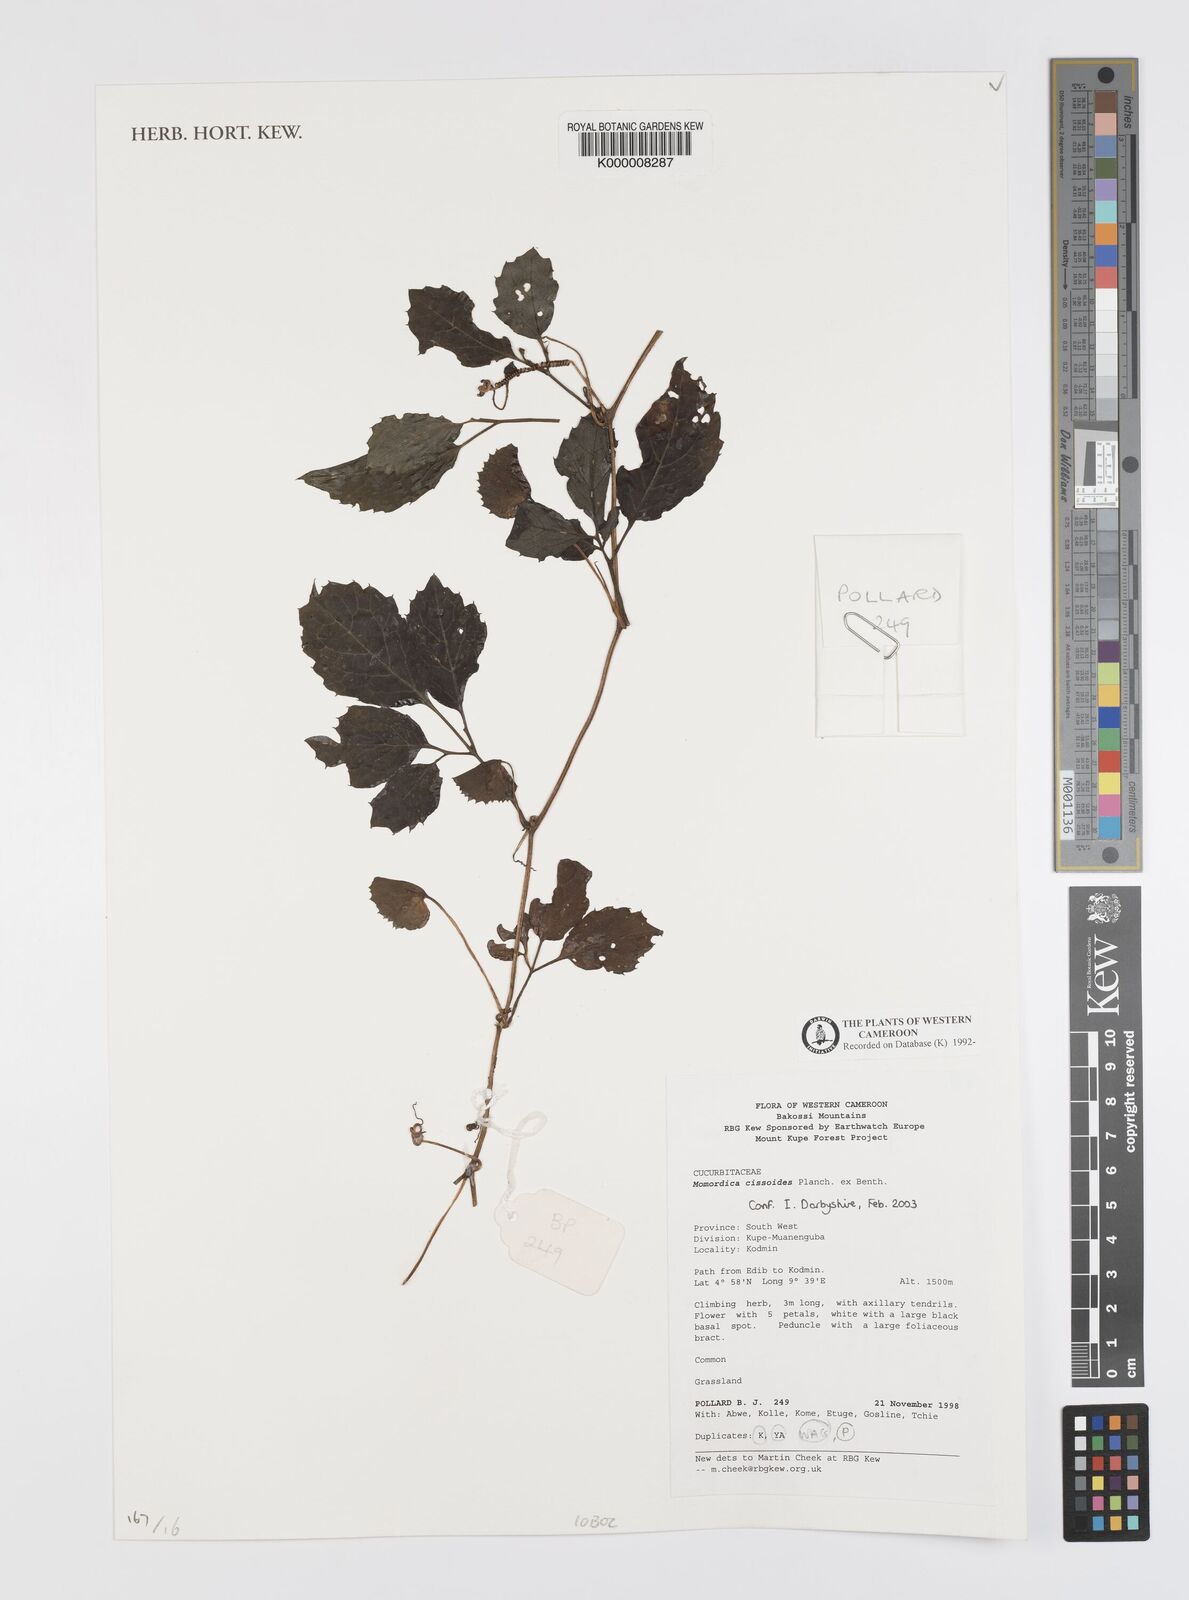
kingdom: Plantae
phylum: Tracheophyta
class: Magnoliopsida
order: Cucurbitales
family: Cucurbitaceae
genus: Momordica
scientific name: Momordica cissoides
